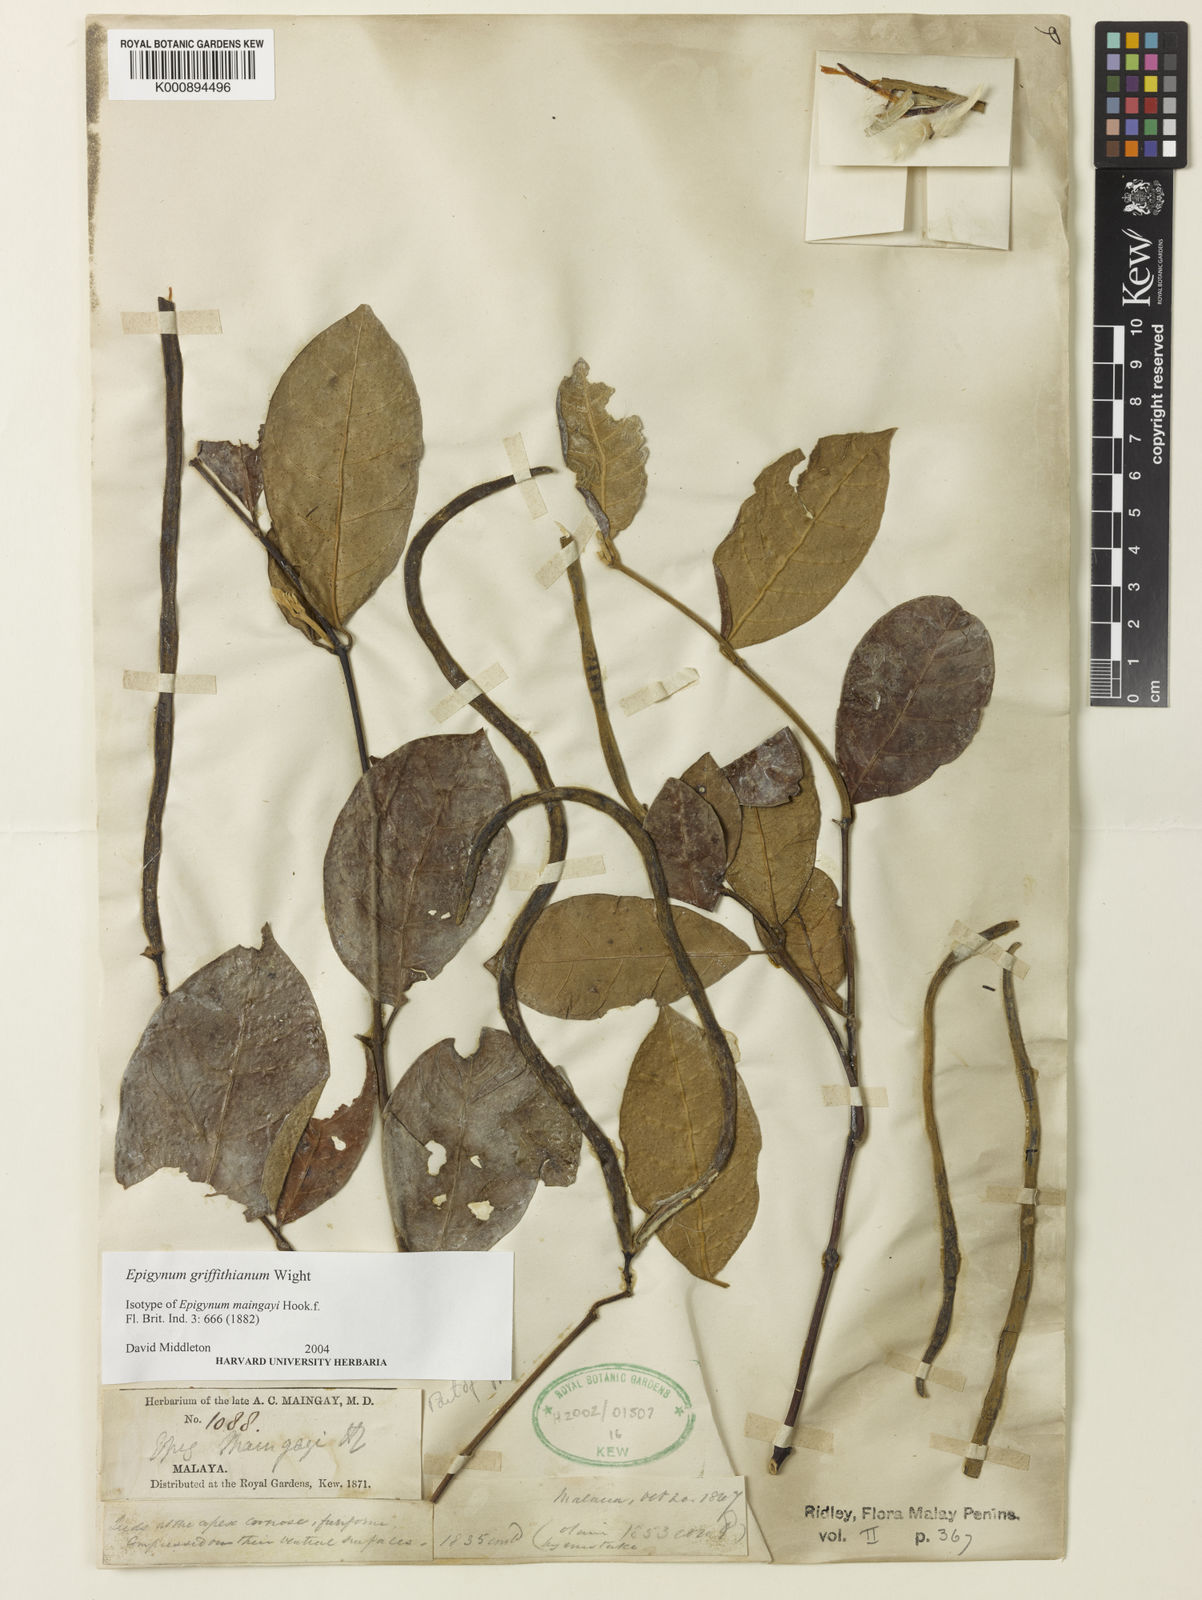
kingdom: Plantae
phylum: Tracheophyta
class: Magnoliopsida
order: Gentianales
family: Apocynaceae
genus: Epigynum
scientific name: Epigynum griffithianum
